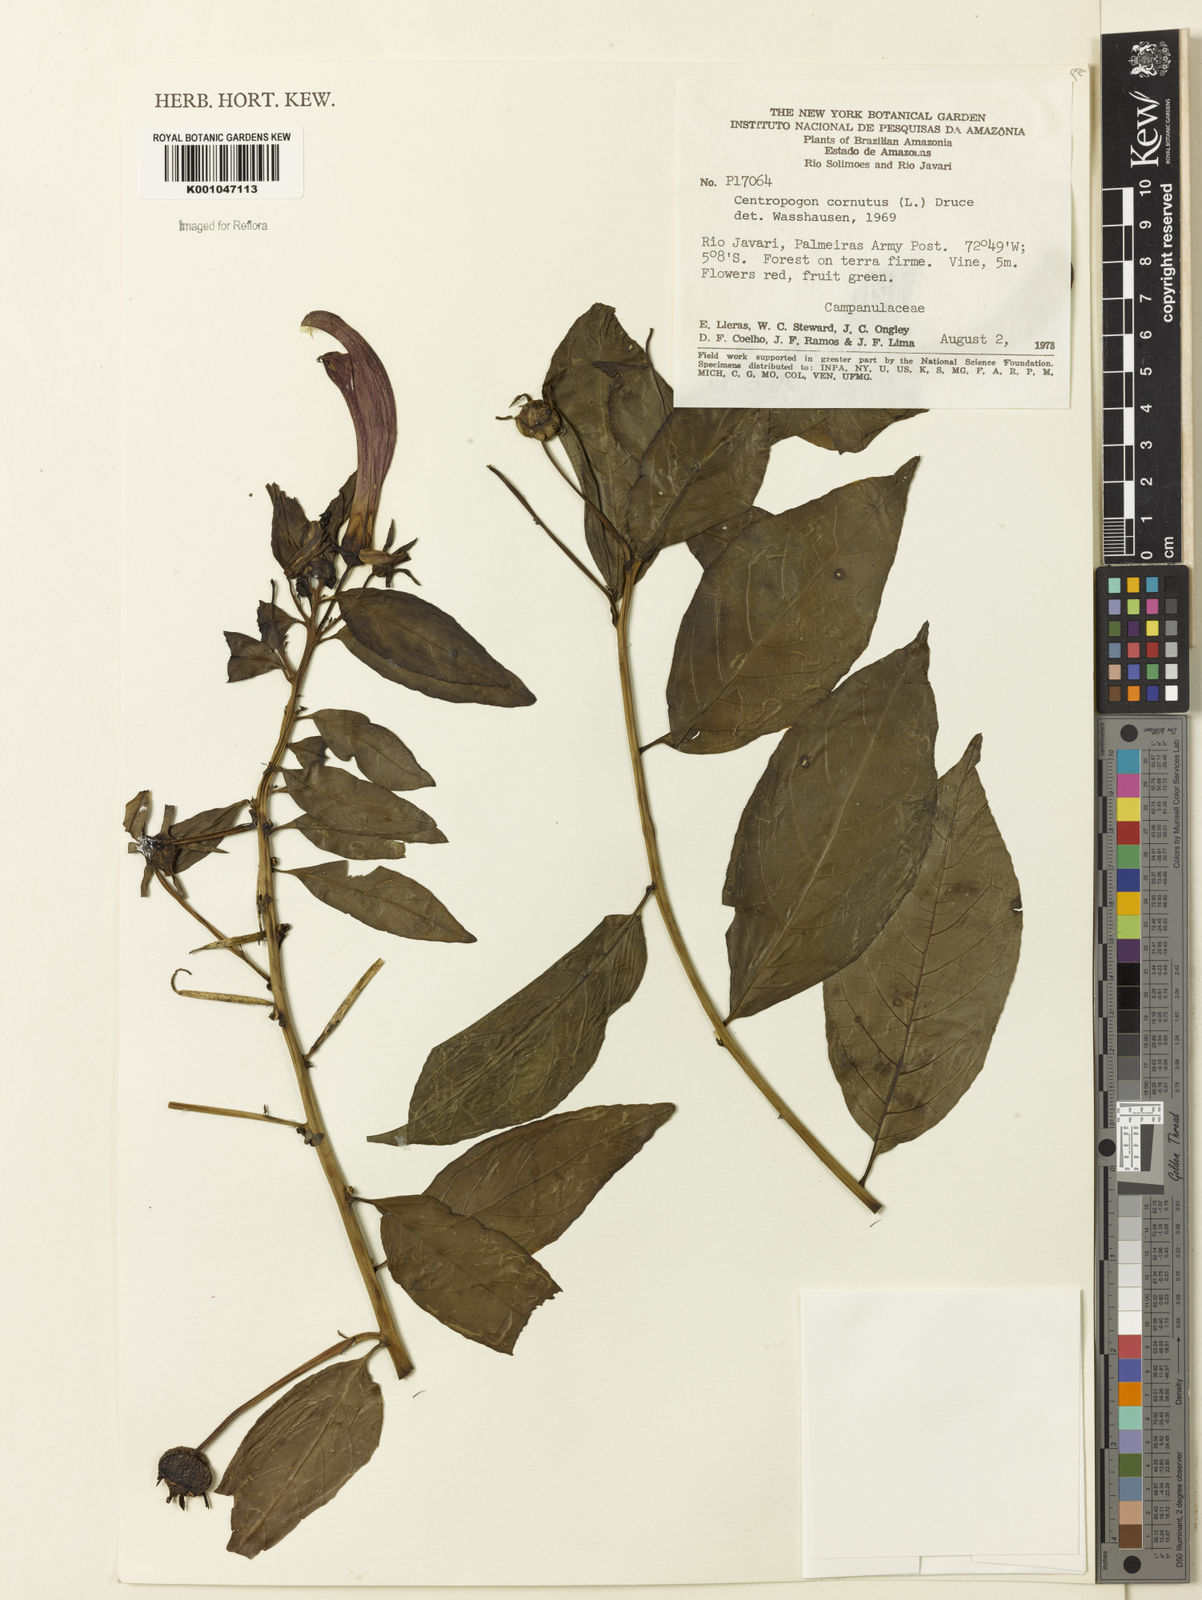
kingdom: Plantae
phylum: Tracheophyta
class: Magnoliopsida
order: Asterales
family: Campanulaceae
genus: Centropogon
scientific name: Centropogon cornutus
